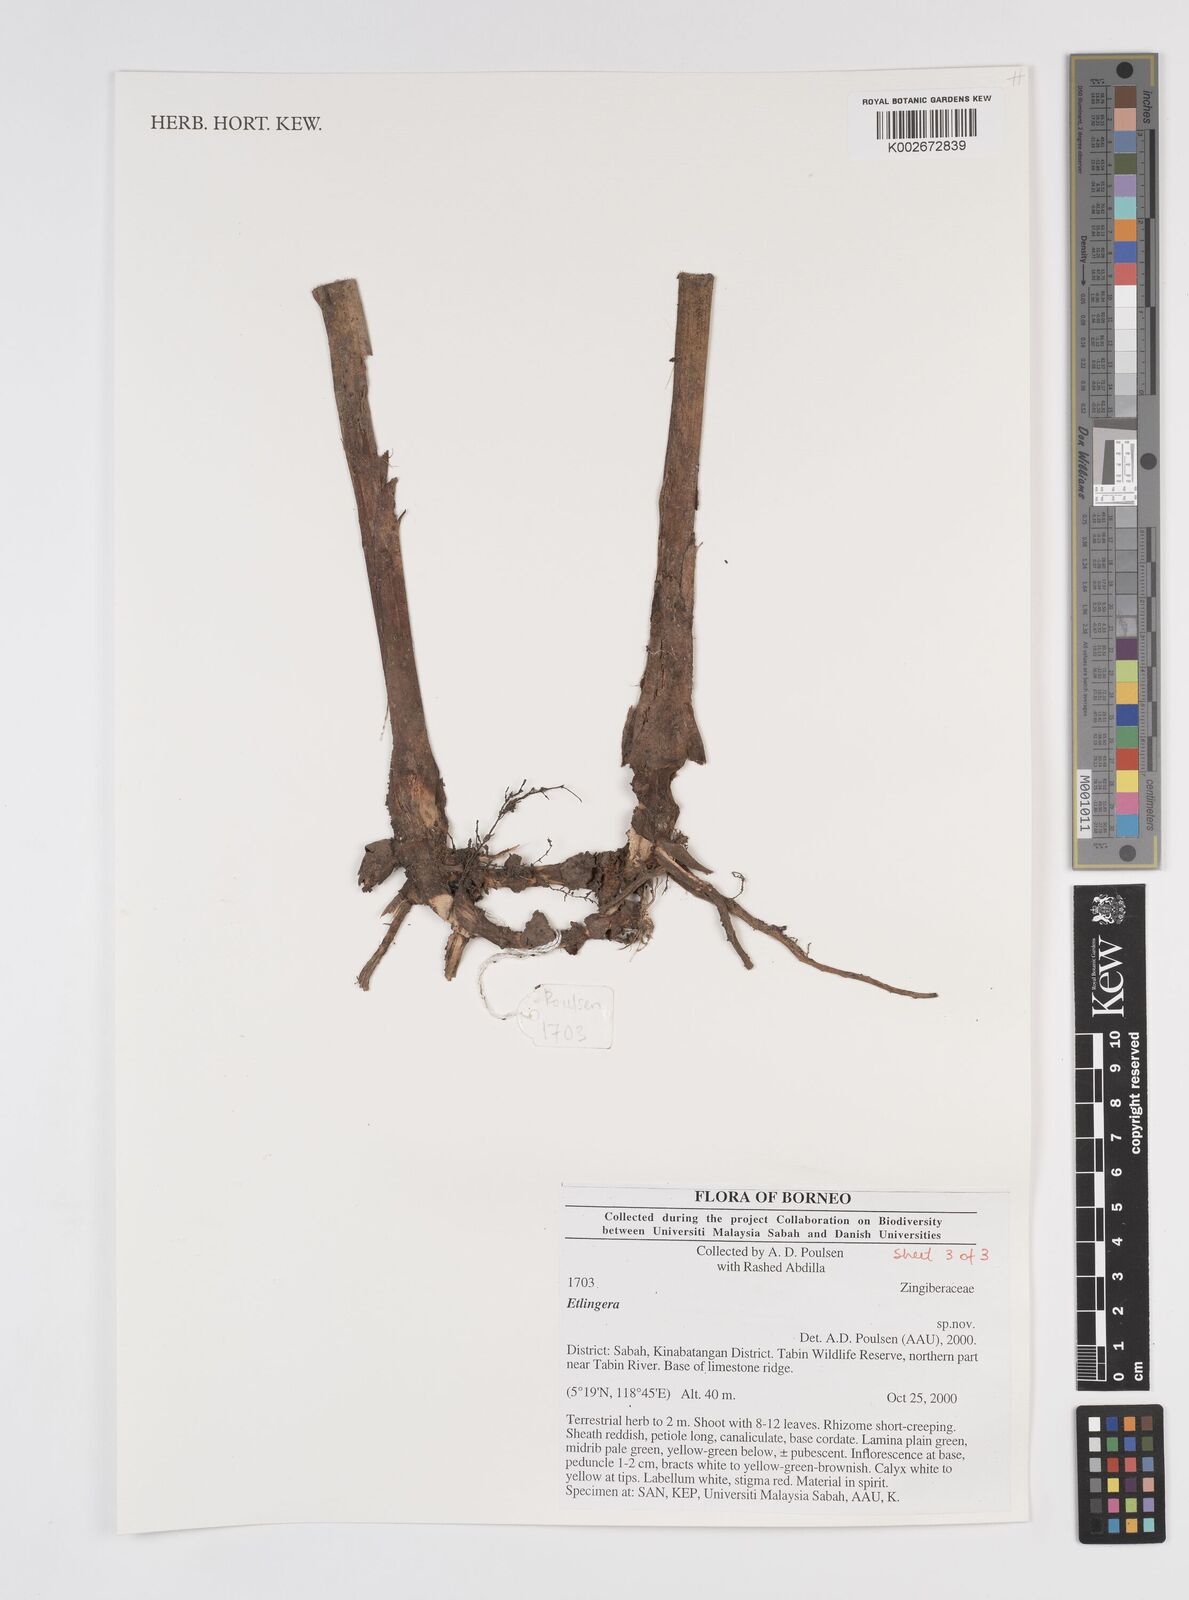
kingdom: Plantae
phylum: Tracheophyta
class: Liliopsida
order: Zingiberales
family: Zingiberaceae
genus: Etlingera
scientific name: Etlingera
